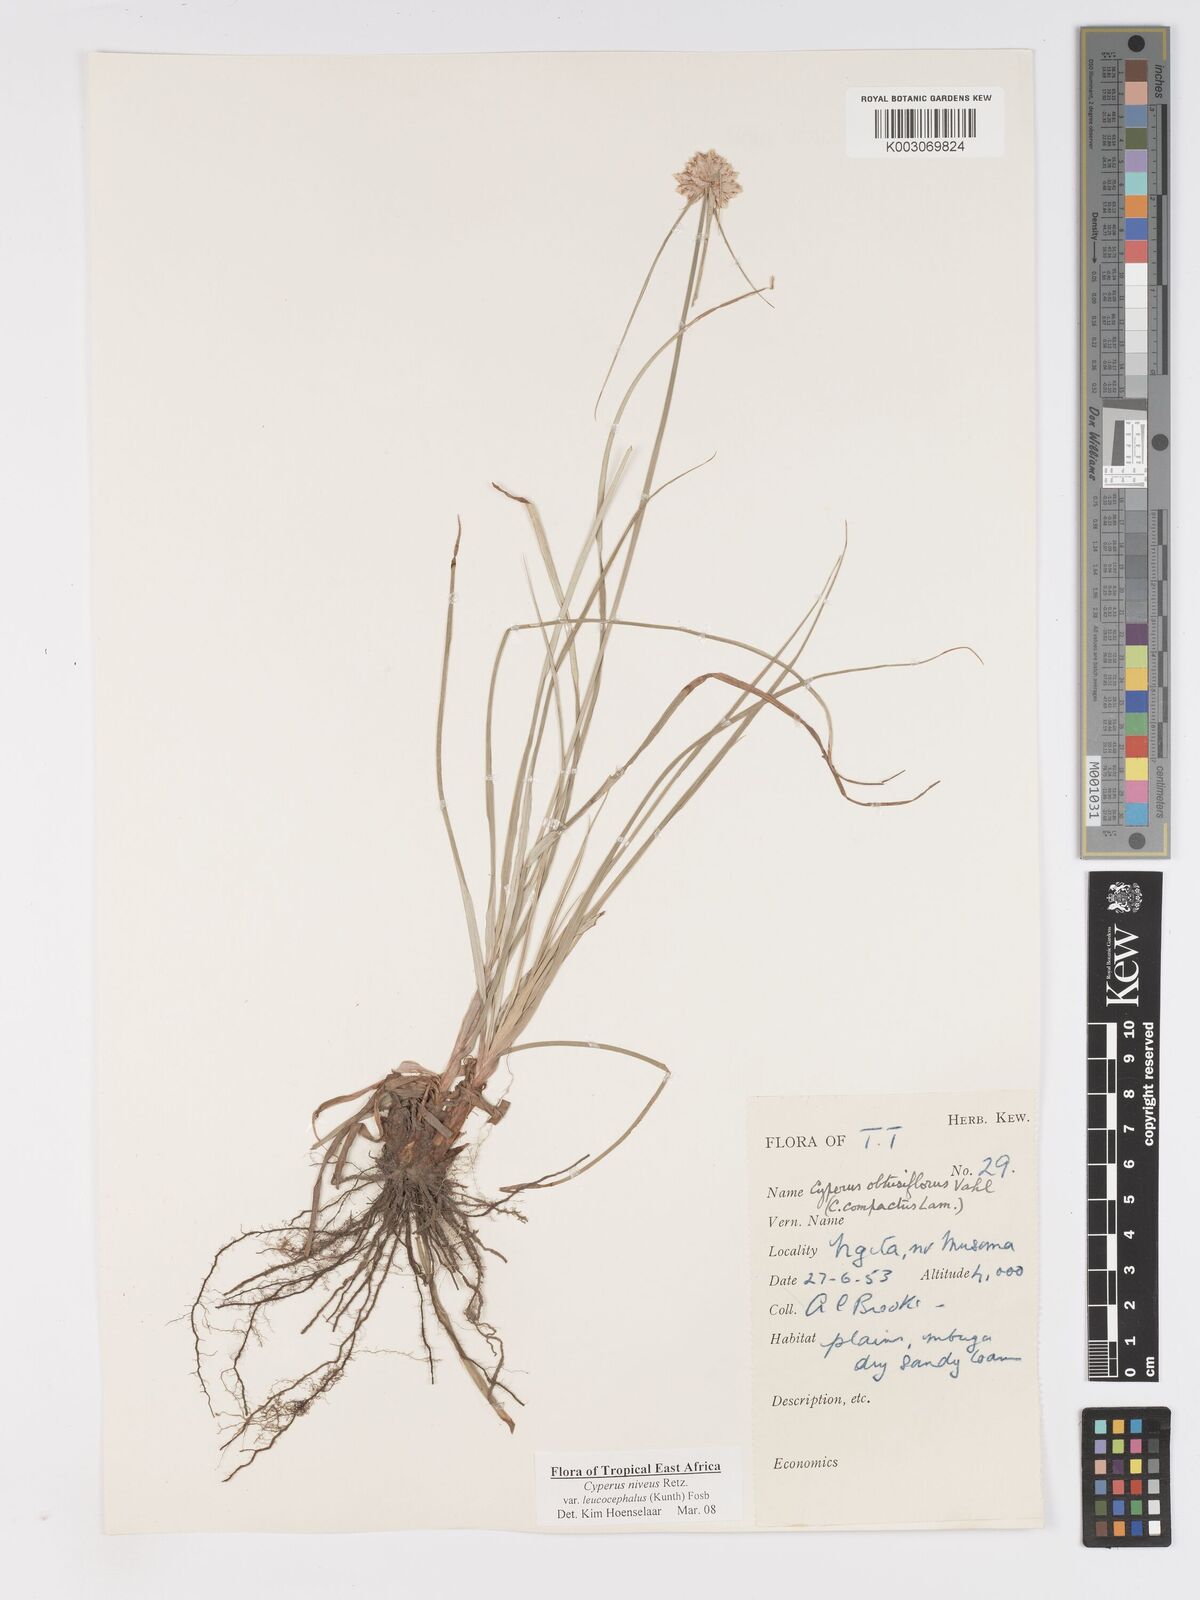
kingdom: Plantae
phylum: Tracheophyta
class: Liliopsida
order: Poales
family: Cyperaceae
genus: Cyperus
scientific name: Cyperus niveus
